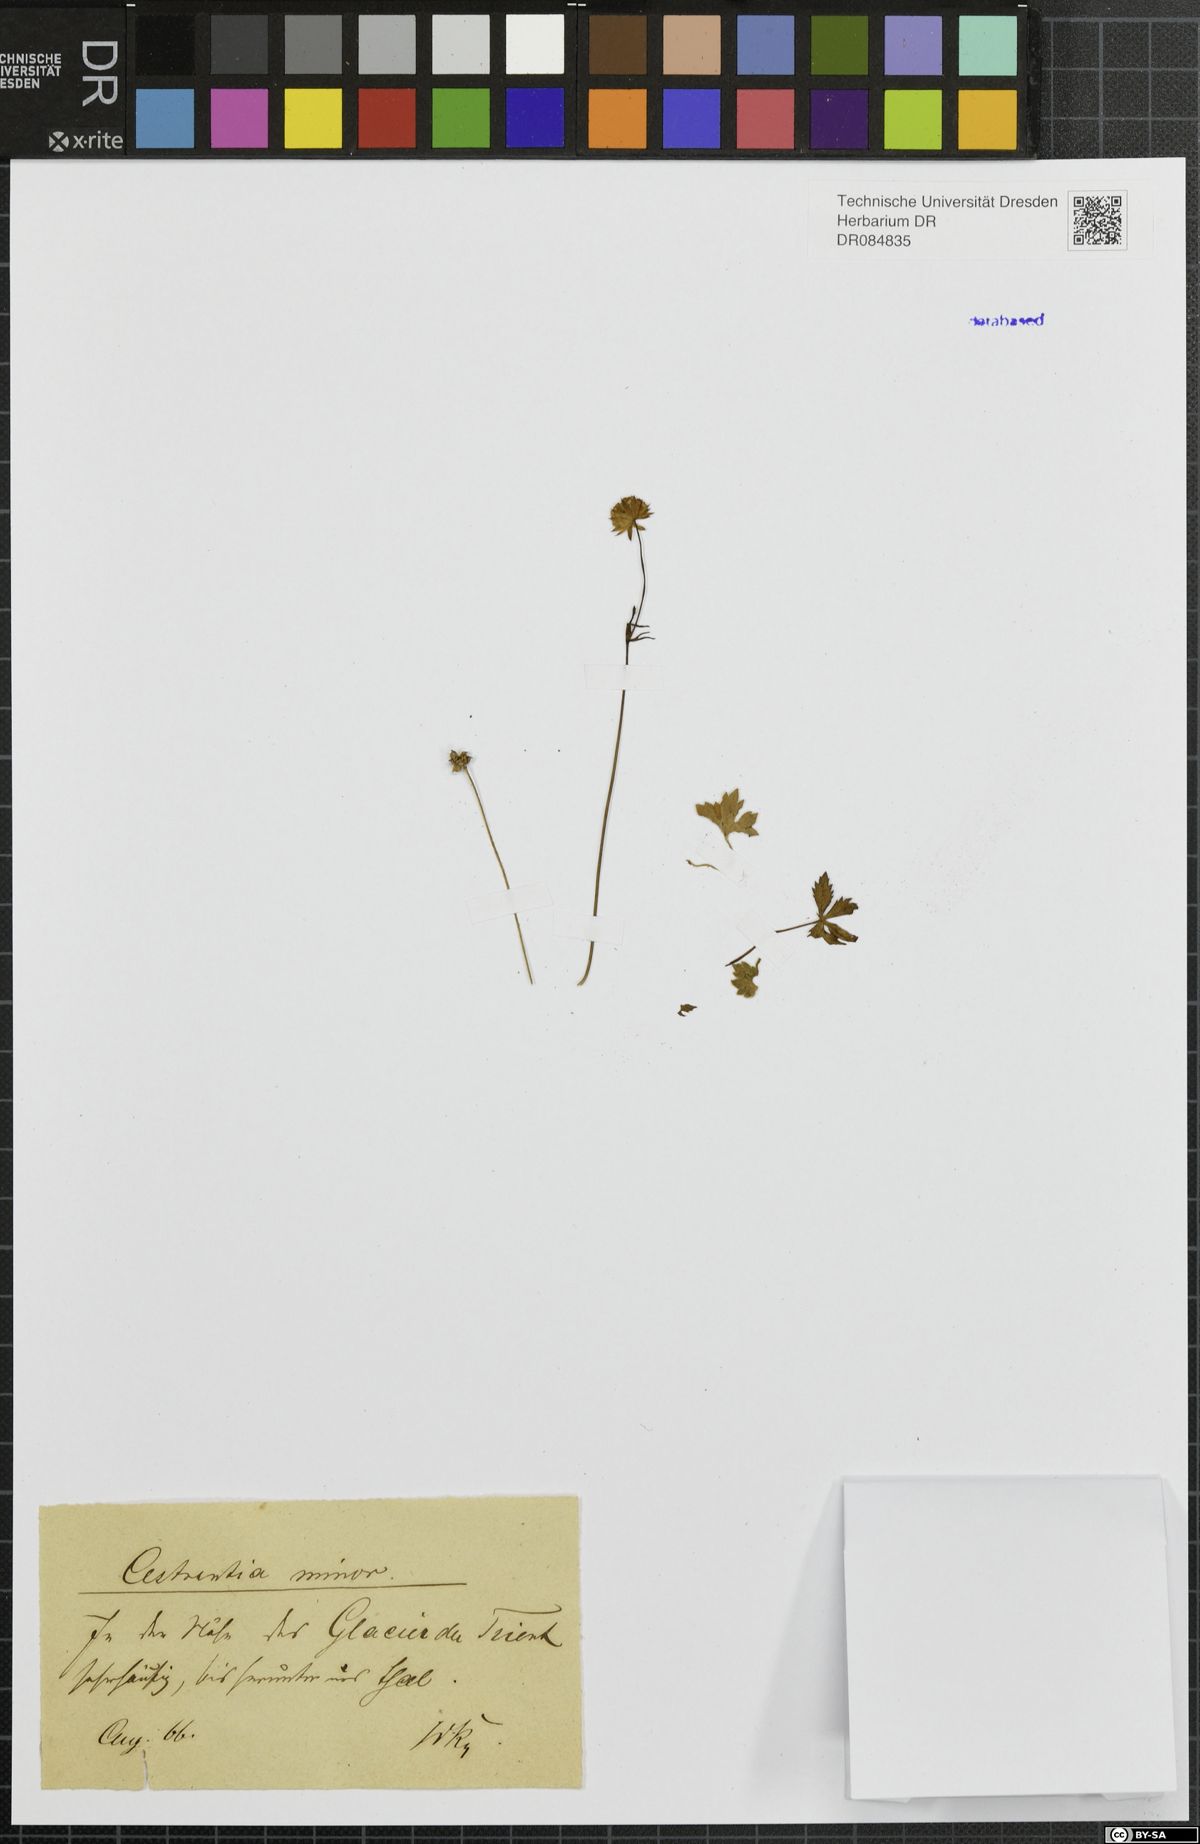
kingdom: Plantae
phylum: Tracheophyta
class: Magnoliopsida
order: Apiales
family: Apiaceae
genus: Astrantia
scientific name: Astrantia minor
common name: Lesser masterwort
